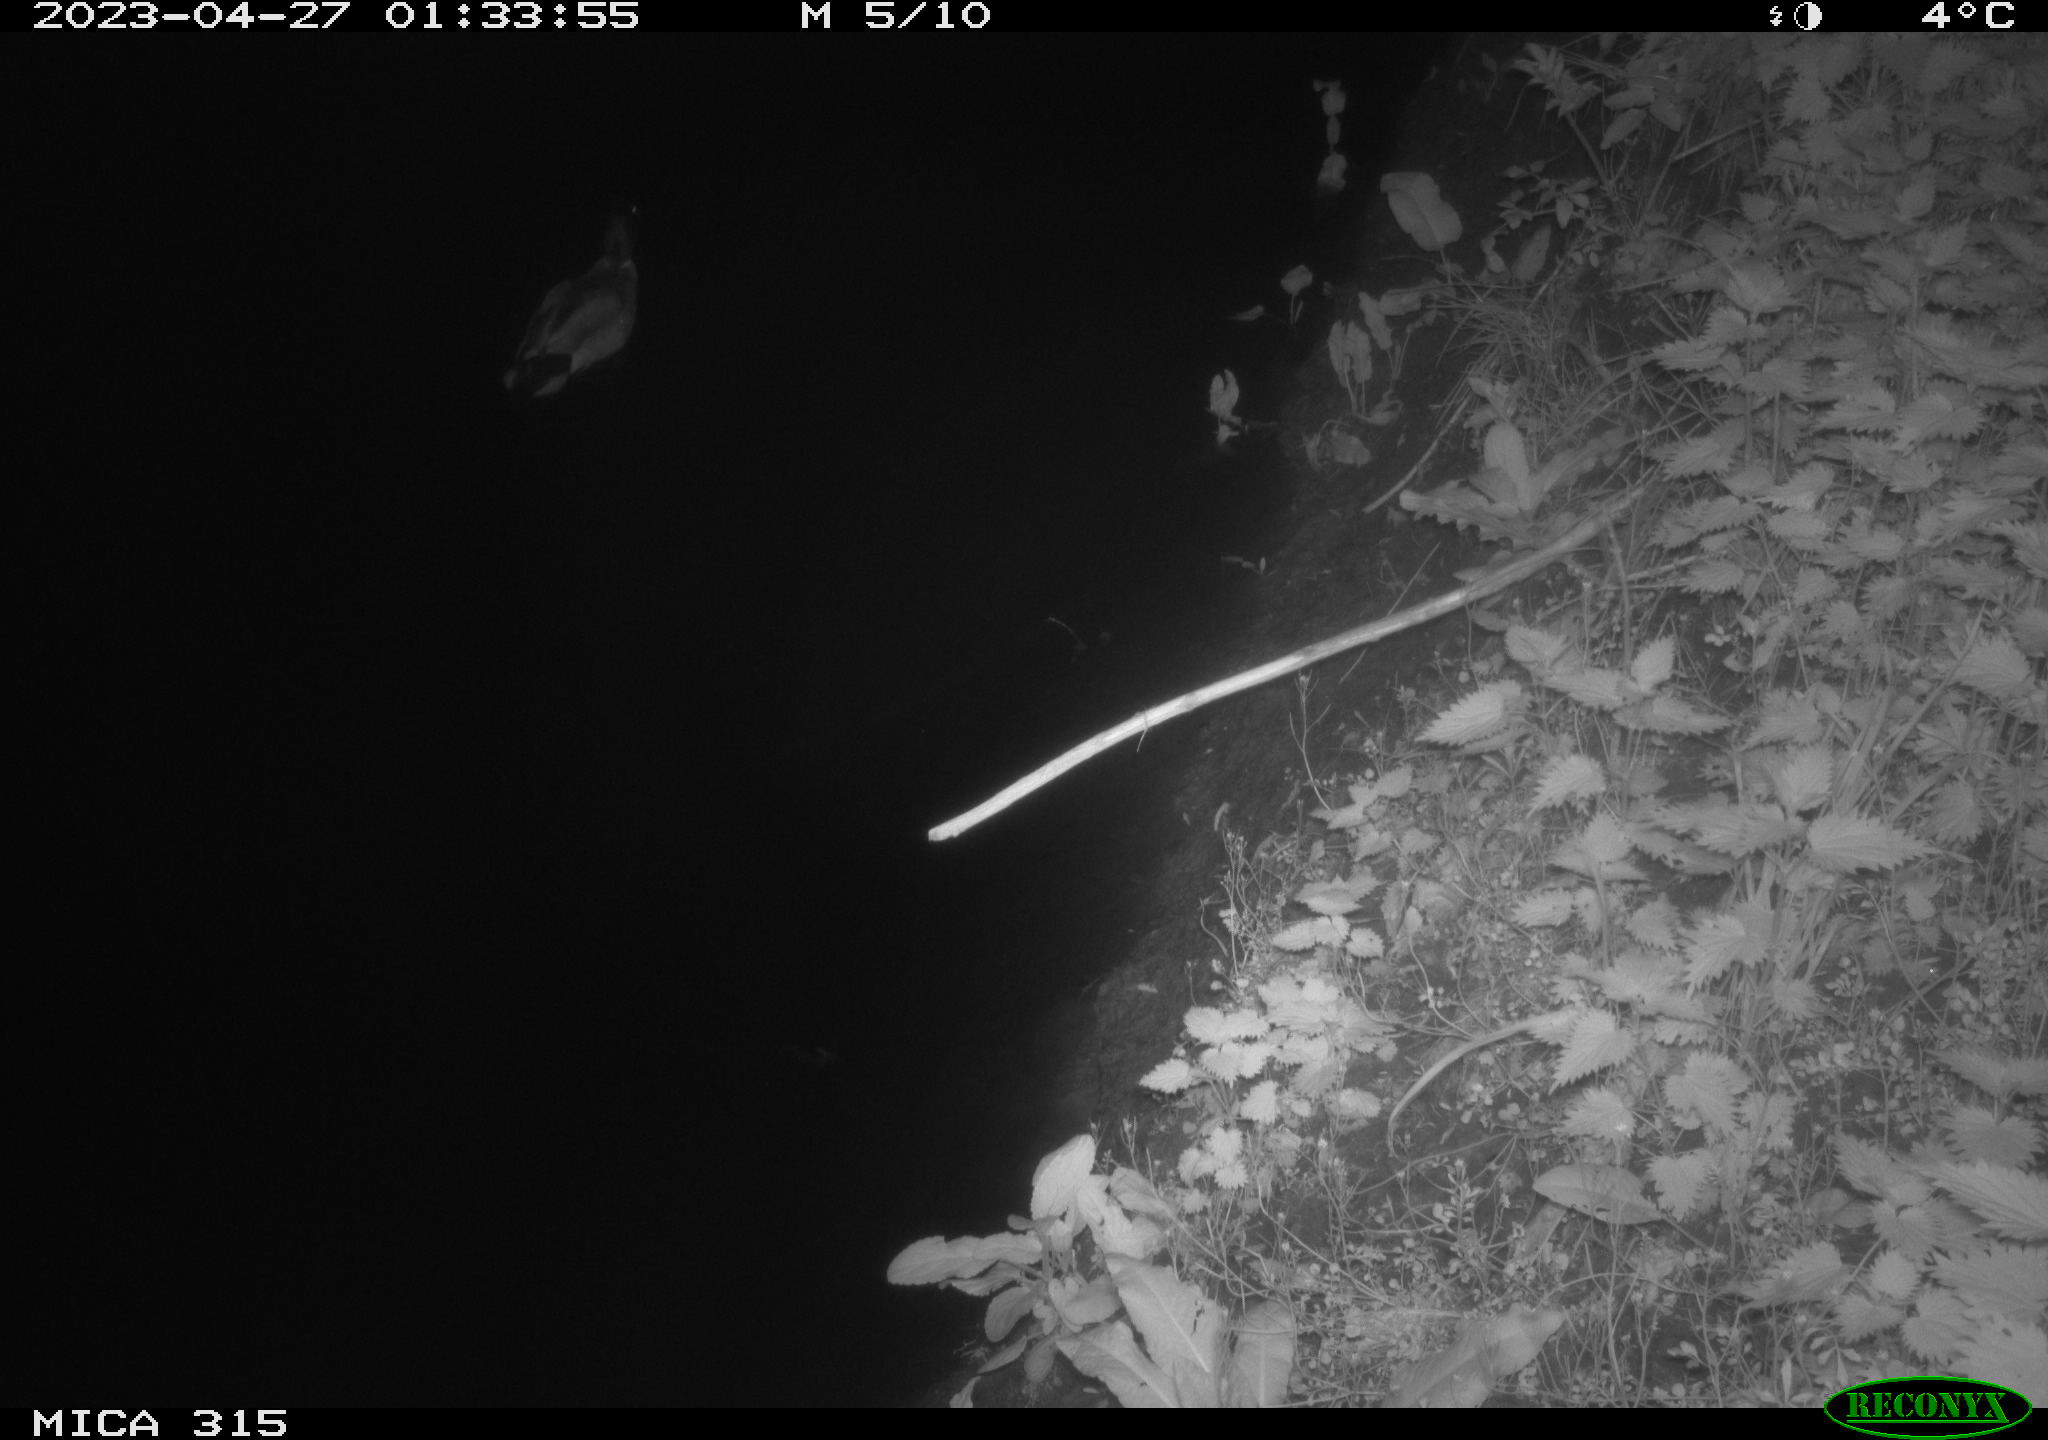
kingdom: Animalia
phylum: Chordata
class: Aves
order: Anseriformes
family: Anatidae
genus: Anas
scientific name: Anas
